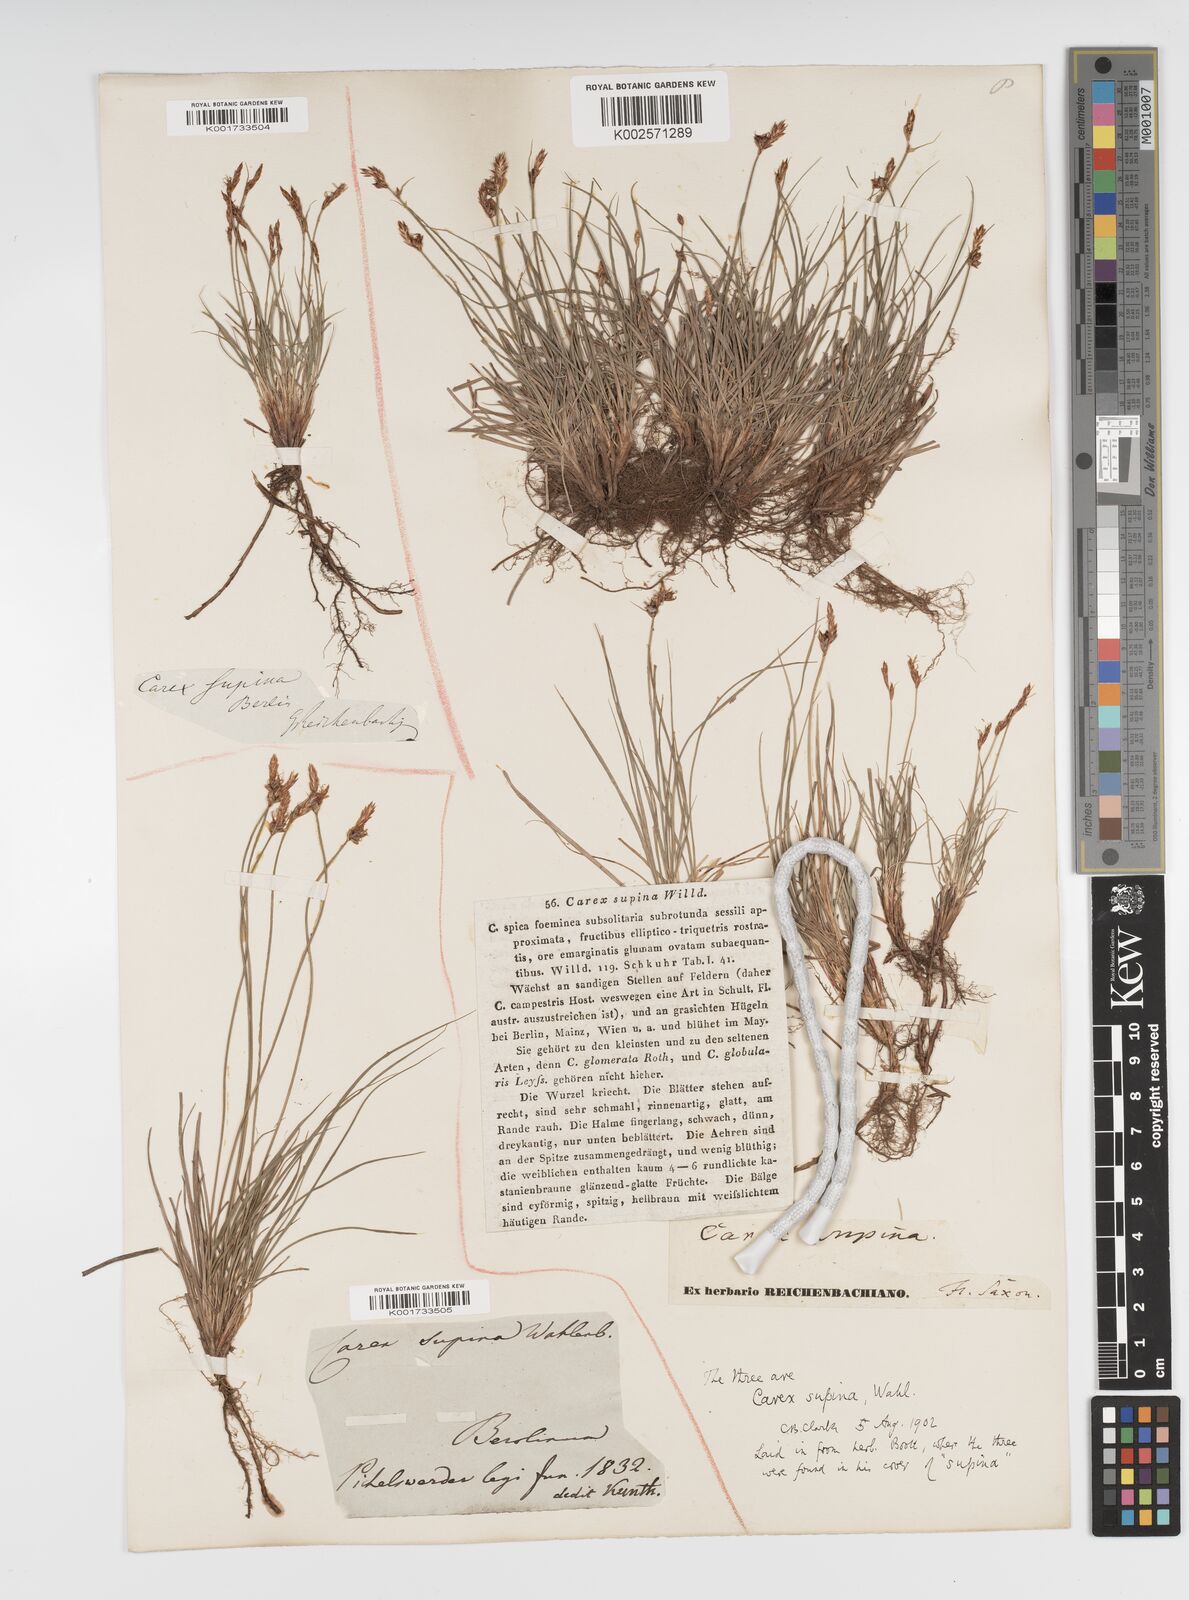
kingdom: Plantae
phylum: Tracheophyta
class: Liliopsida
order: Poales
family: Cyperaceae
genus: Carex
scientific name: Carex supina
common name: Lying-back sedge
